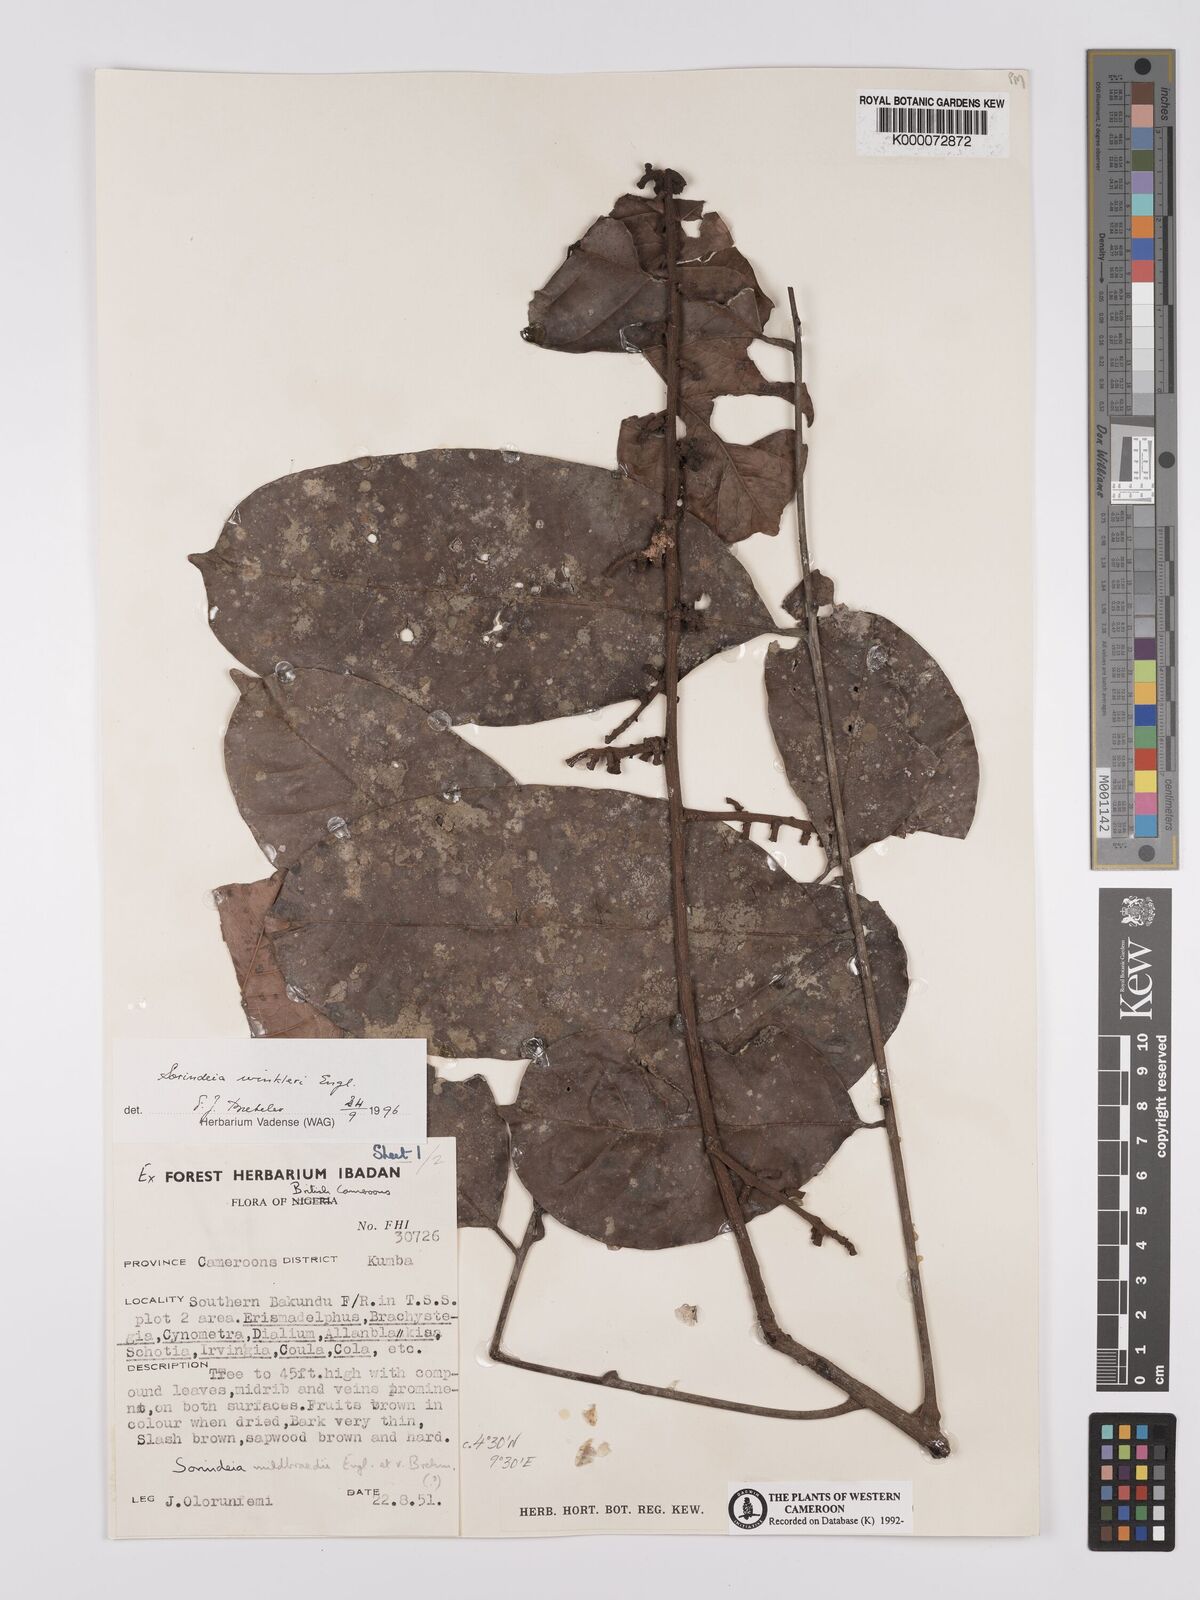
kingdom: Plantae
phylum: Tracheophyta
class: Magnoliopsida
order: Sapindales
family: Anacardiaceae
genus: Sorindeia
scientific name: Sorindeia winkleri
